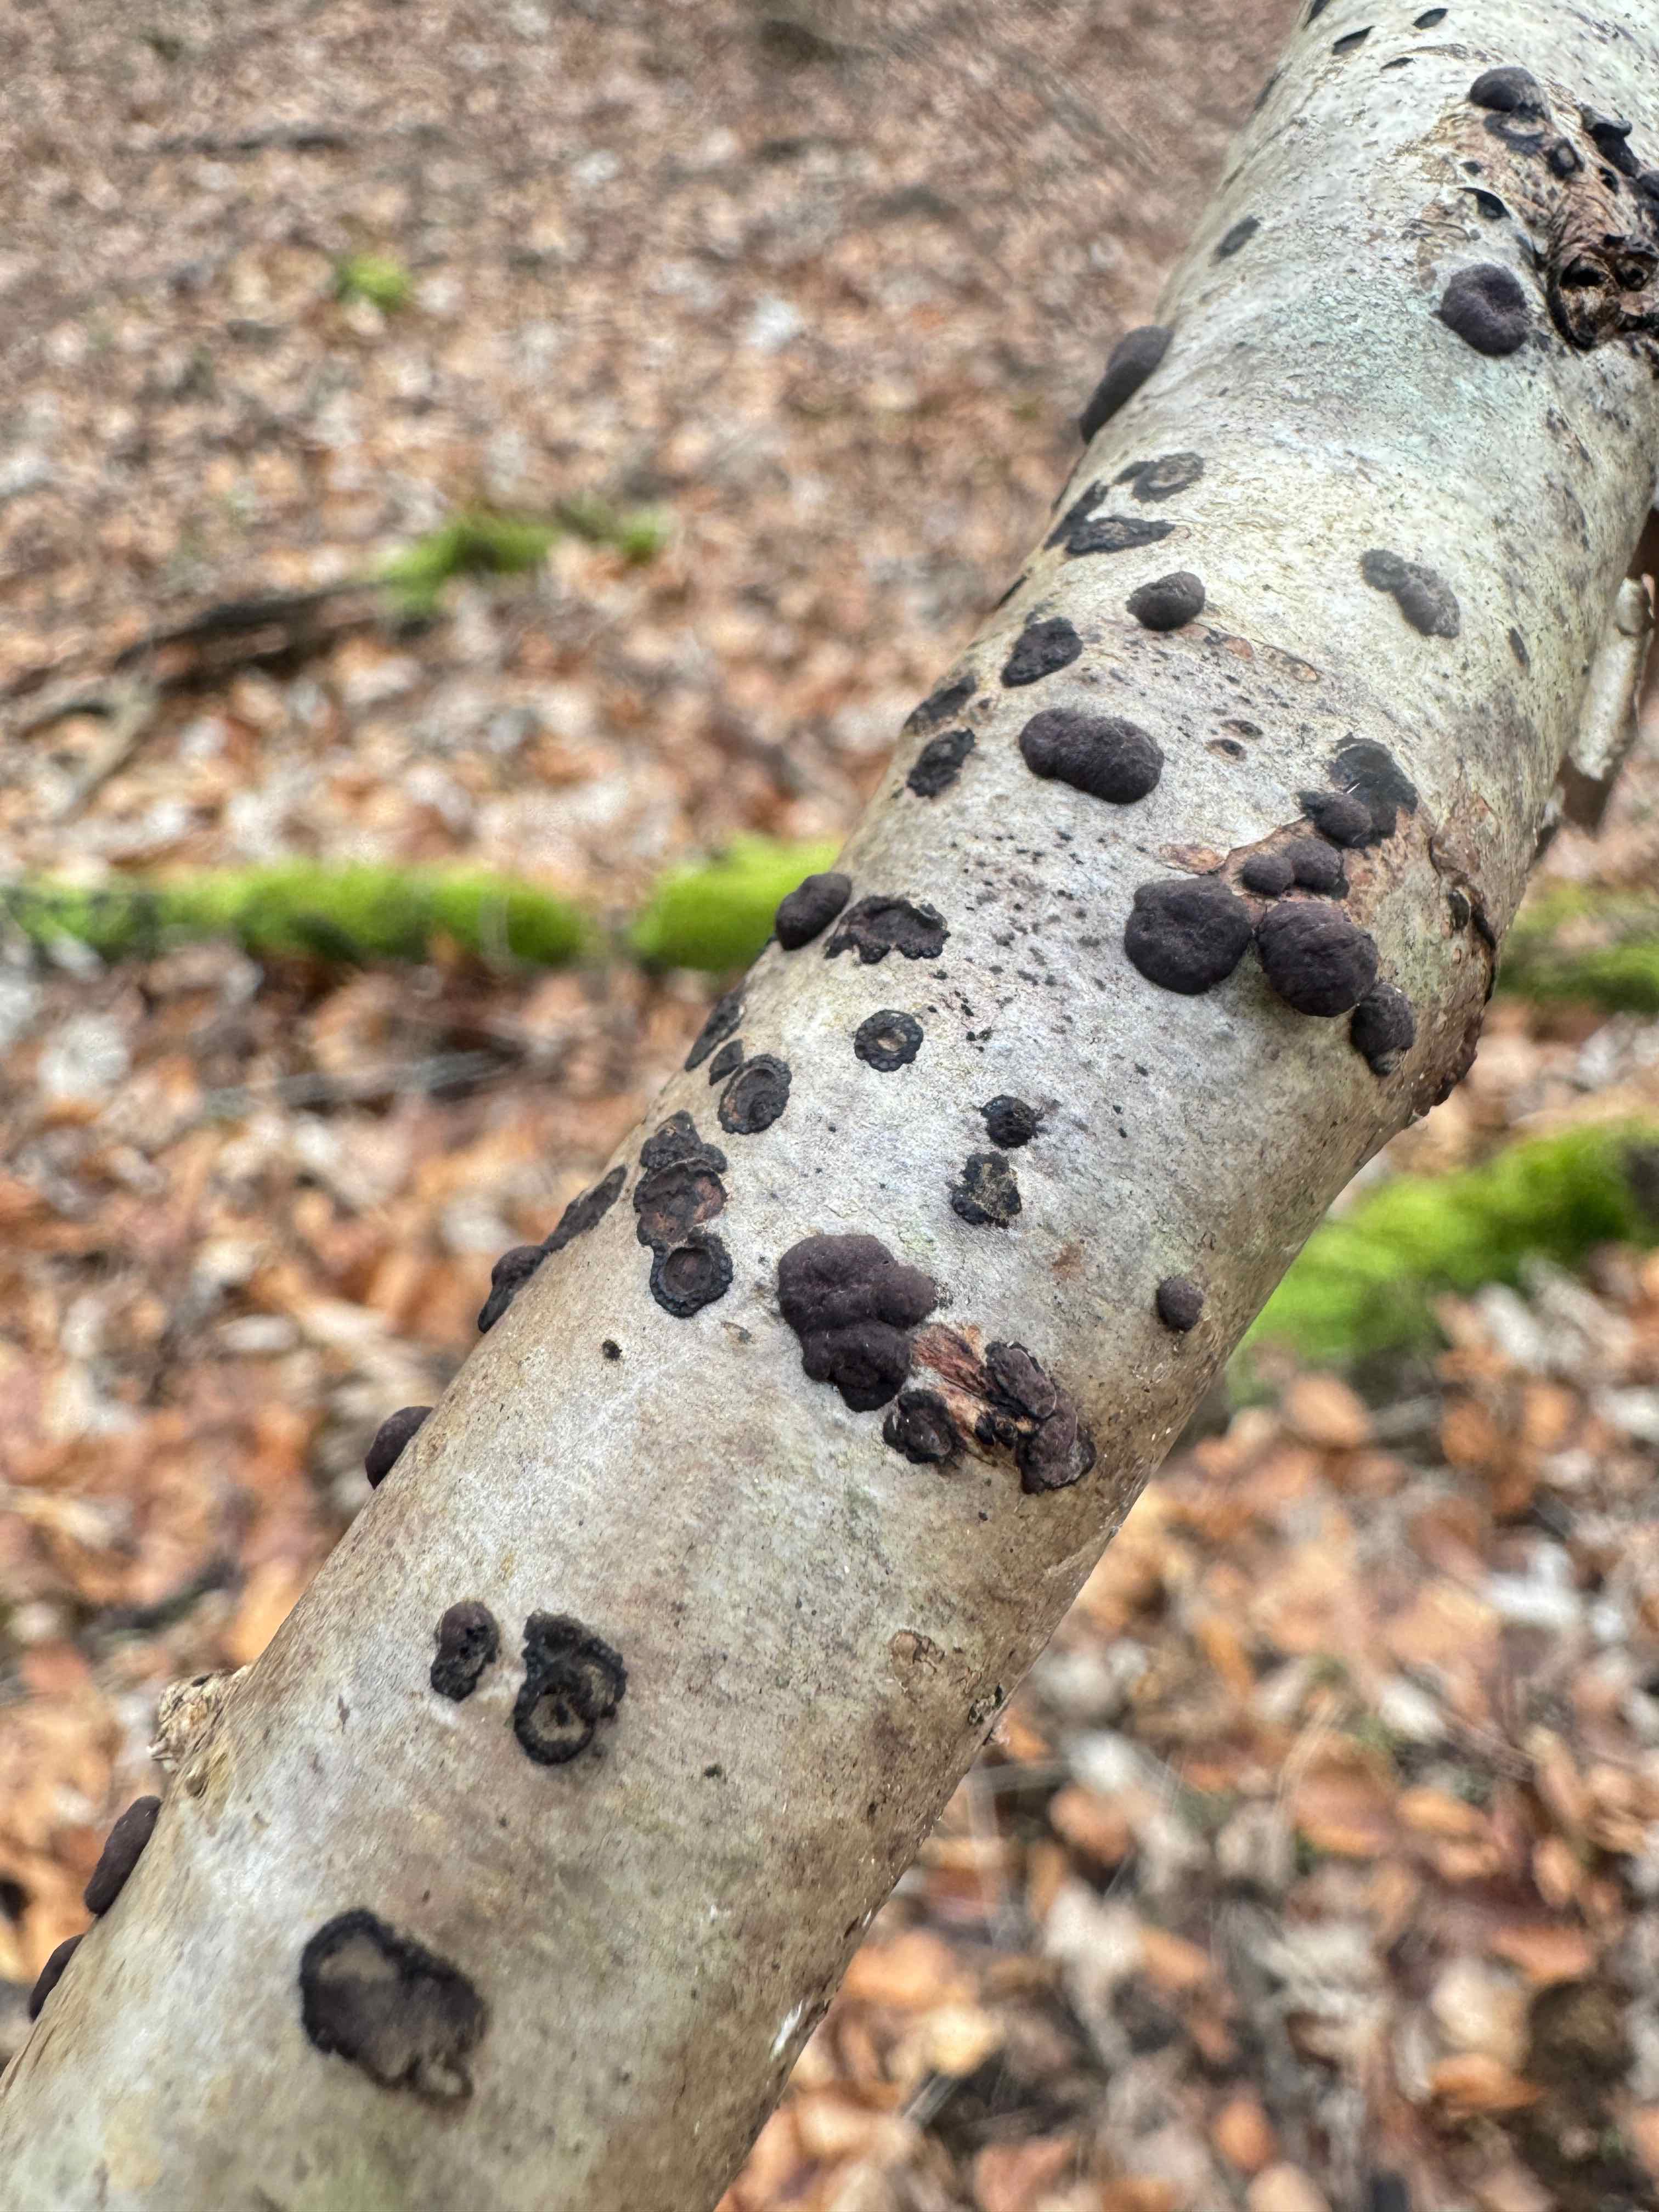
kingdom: Fungi
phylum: Ascomycota
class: Sordariomycetes
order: Xylariales
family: Hypoxylaceae
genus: Hypoxylon
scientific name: Hypoxylon fuscum
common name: kegleformet kulbær
